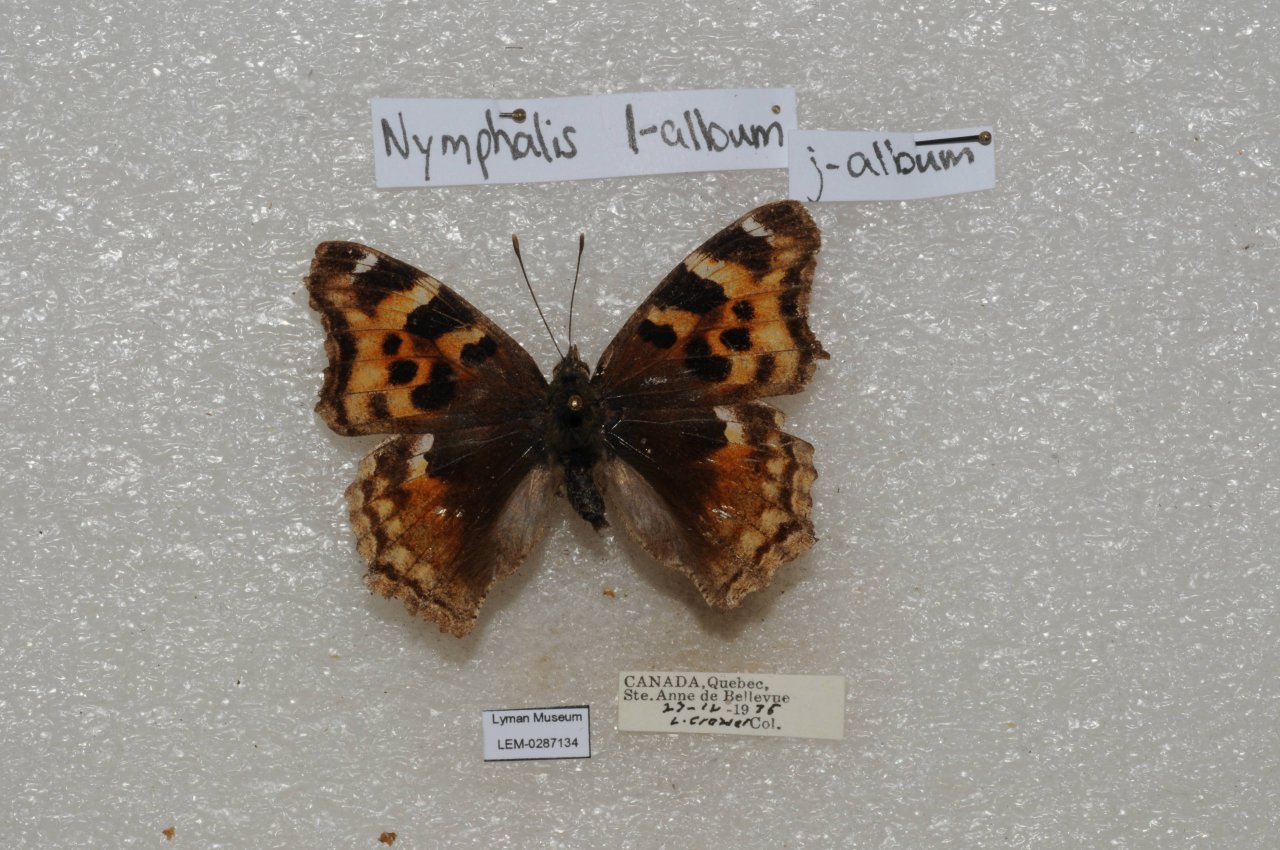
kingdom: Animalia
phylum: Arthropoda
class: Insecta
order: Lepidoptera
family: Nymphalidae
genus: Polygonia
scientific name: Polygonia vaualbum
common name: Compton Tortoiseshell
